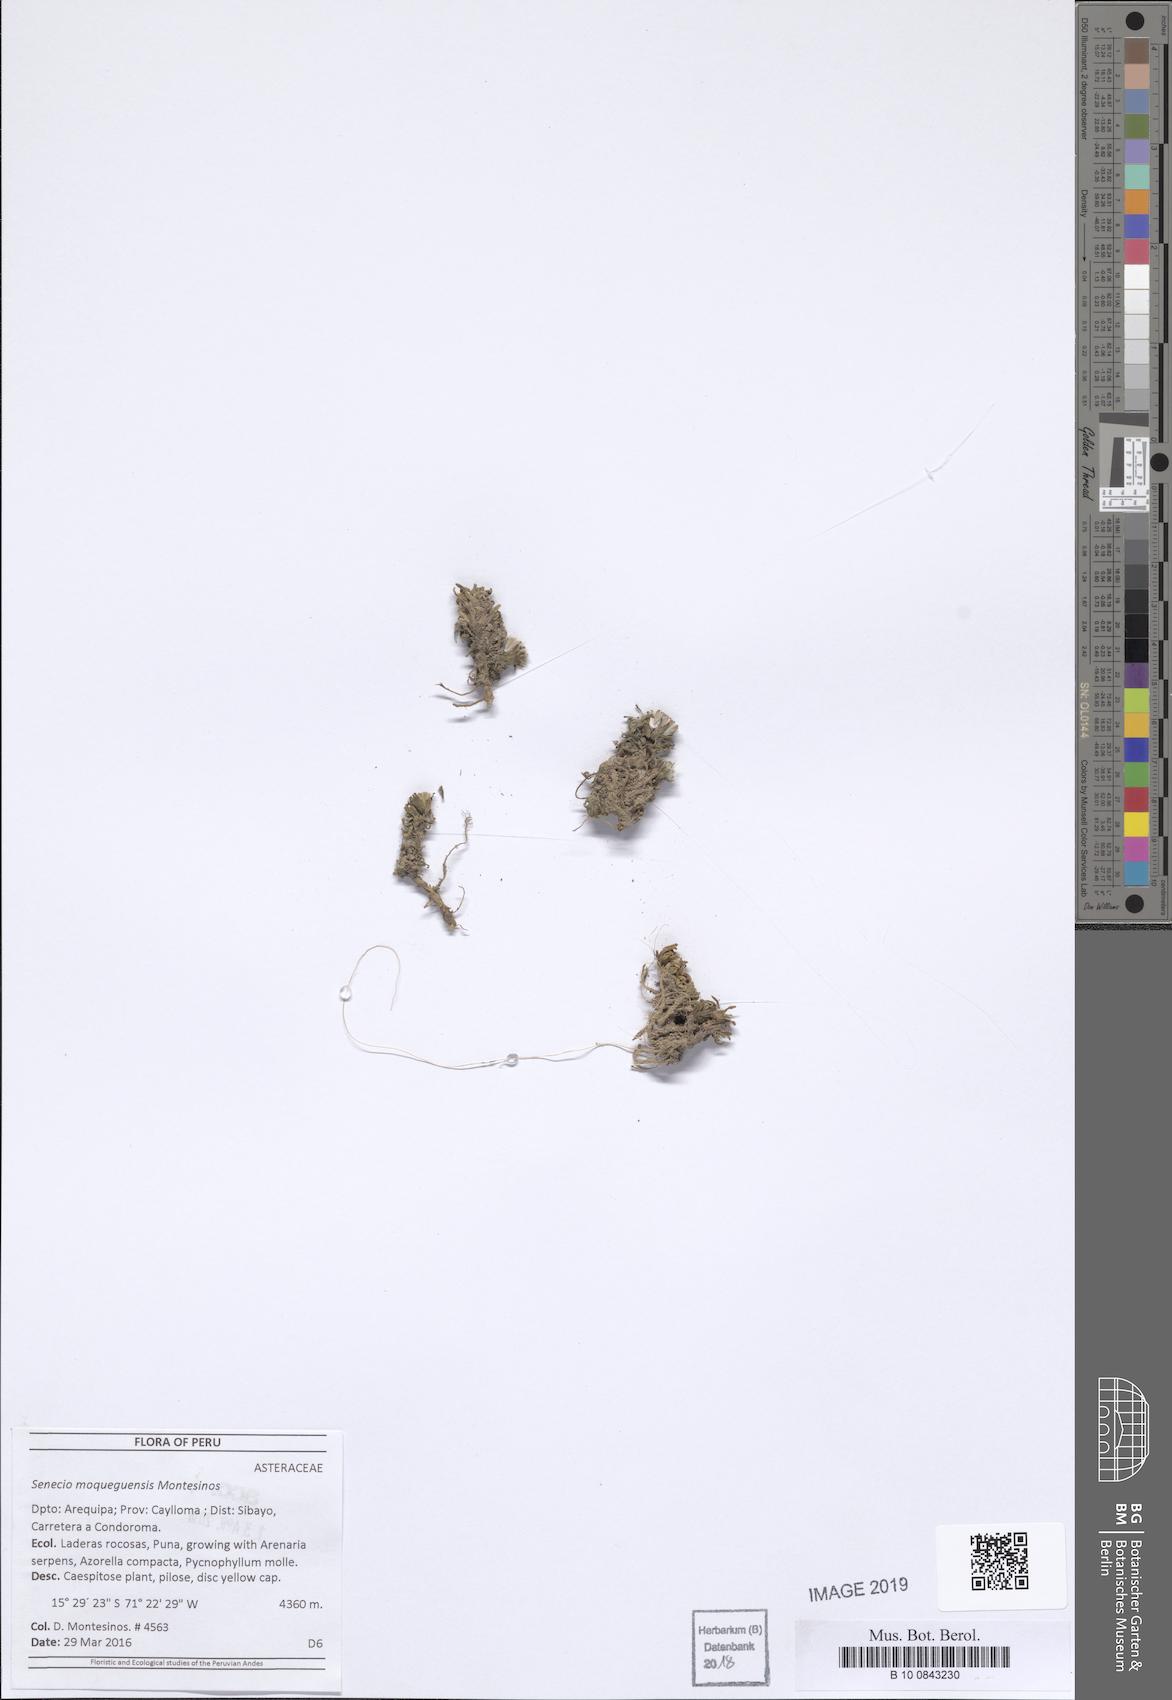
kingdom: Plantae
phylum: Tracheophyta
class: Magnoliopsida
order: Asterales
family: Asteraceae
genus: Senecio
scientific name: Senecio moqueguensis
